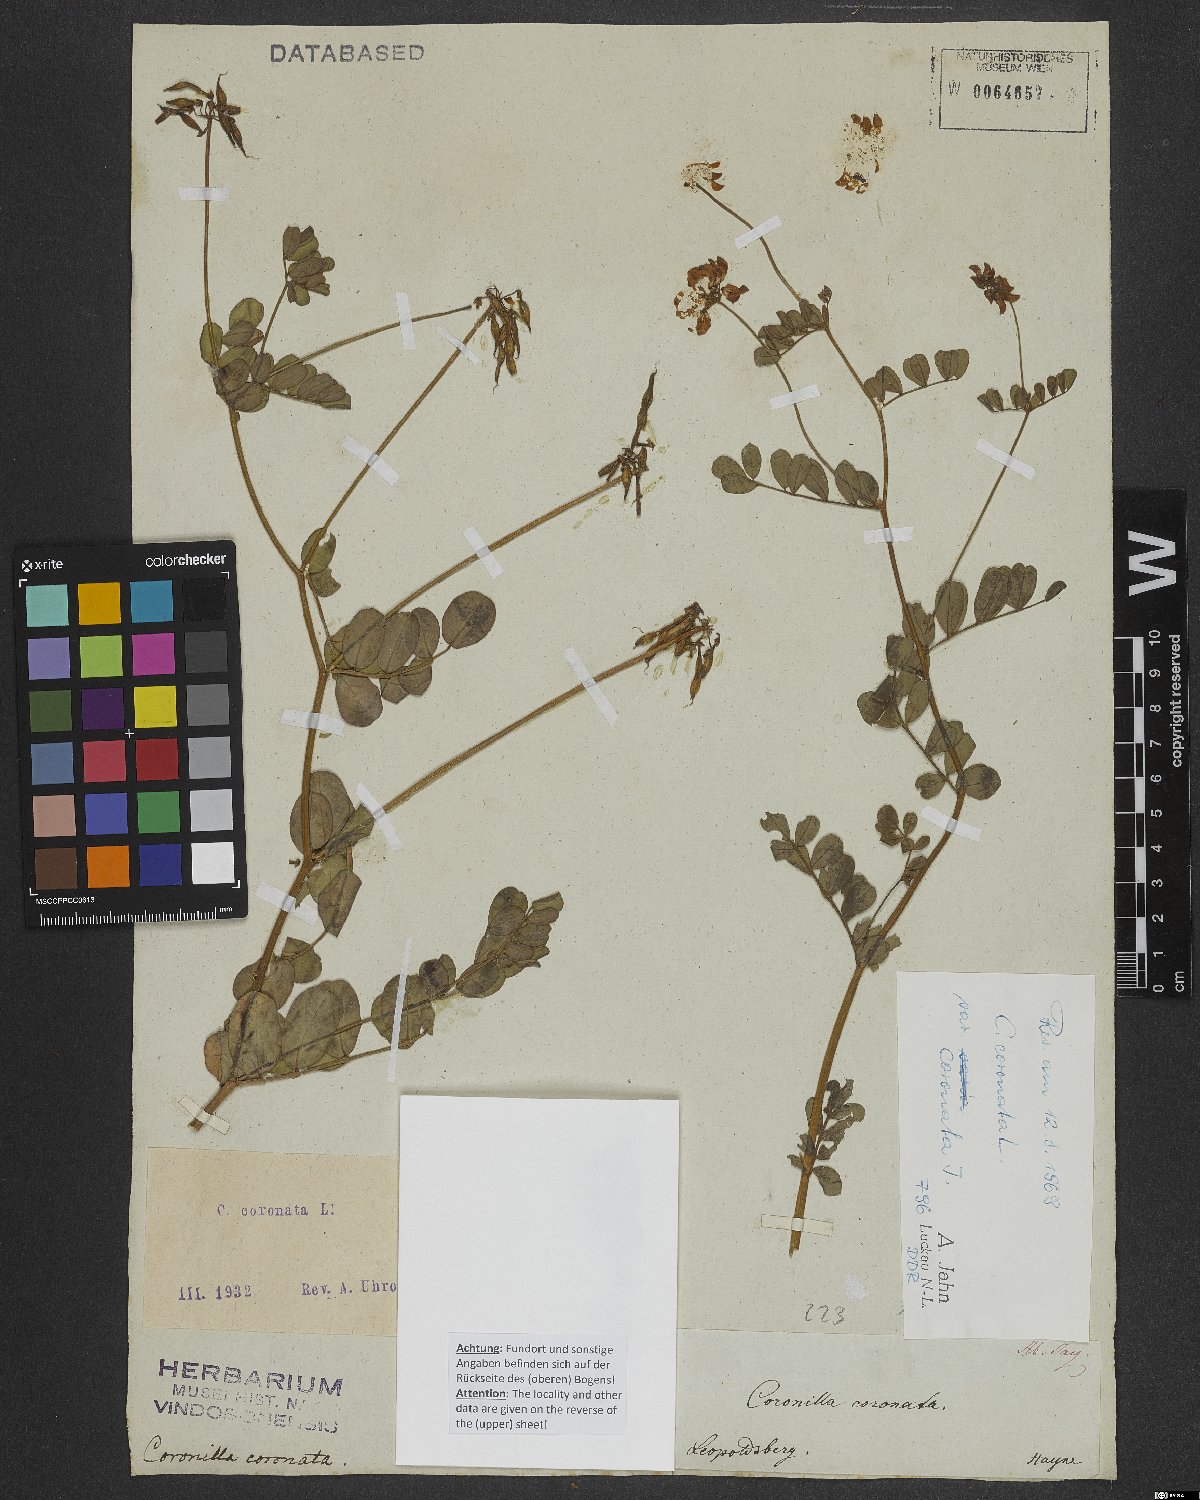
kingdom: Plantae
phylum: Tracheophyta
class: Magnoliopsida
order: Fabales
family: Fabaceae
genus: Coronilla
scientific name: Coronilla coronata
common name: Scorpion-vetch
